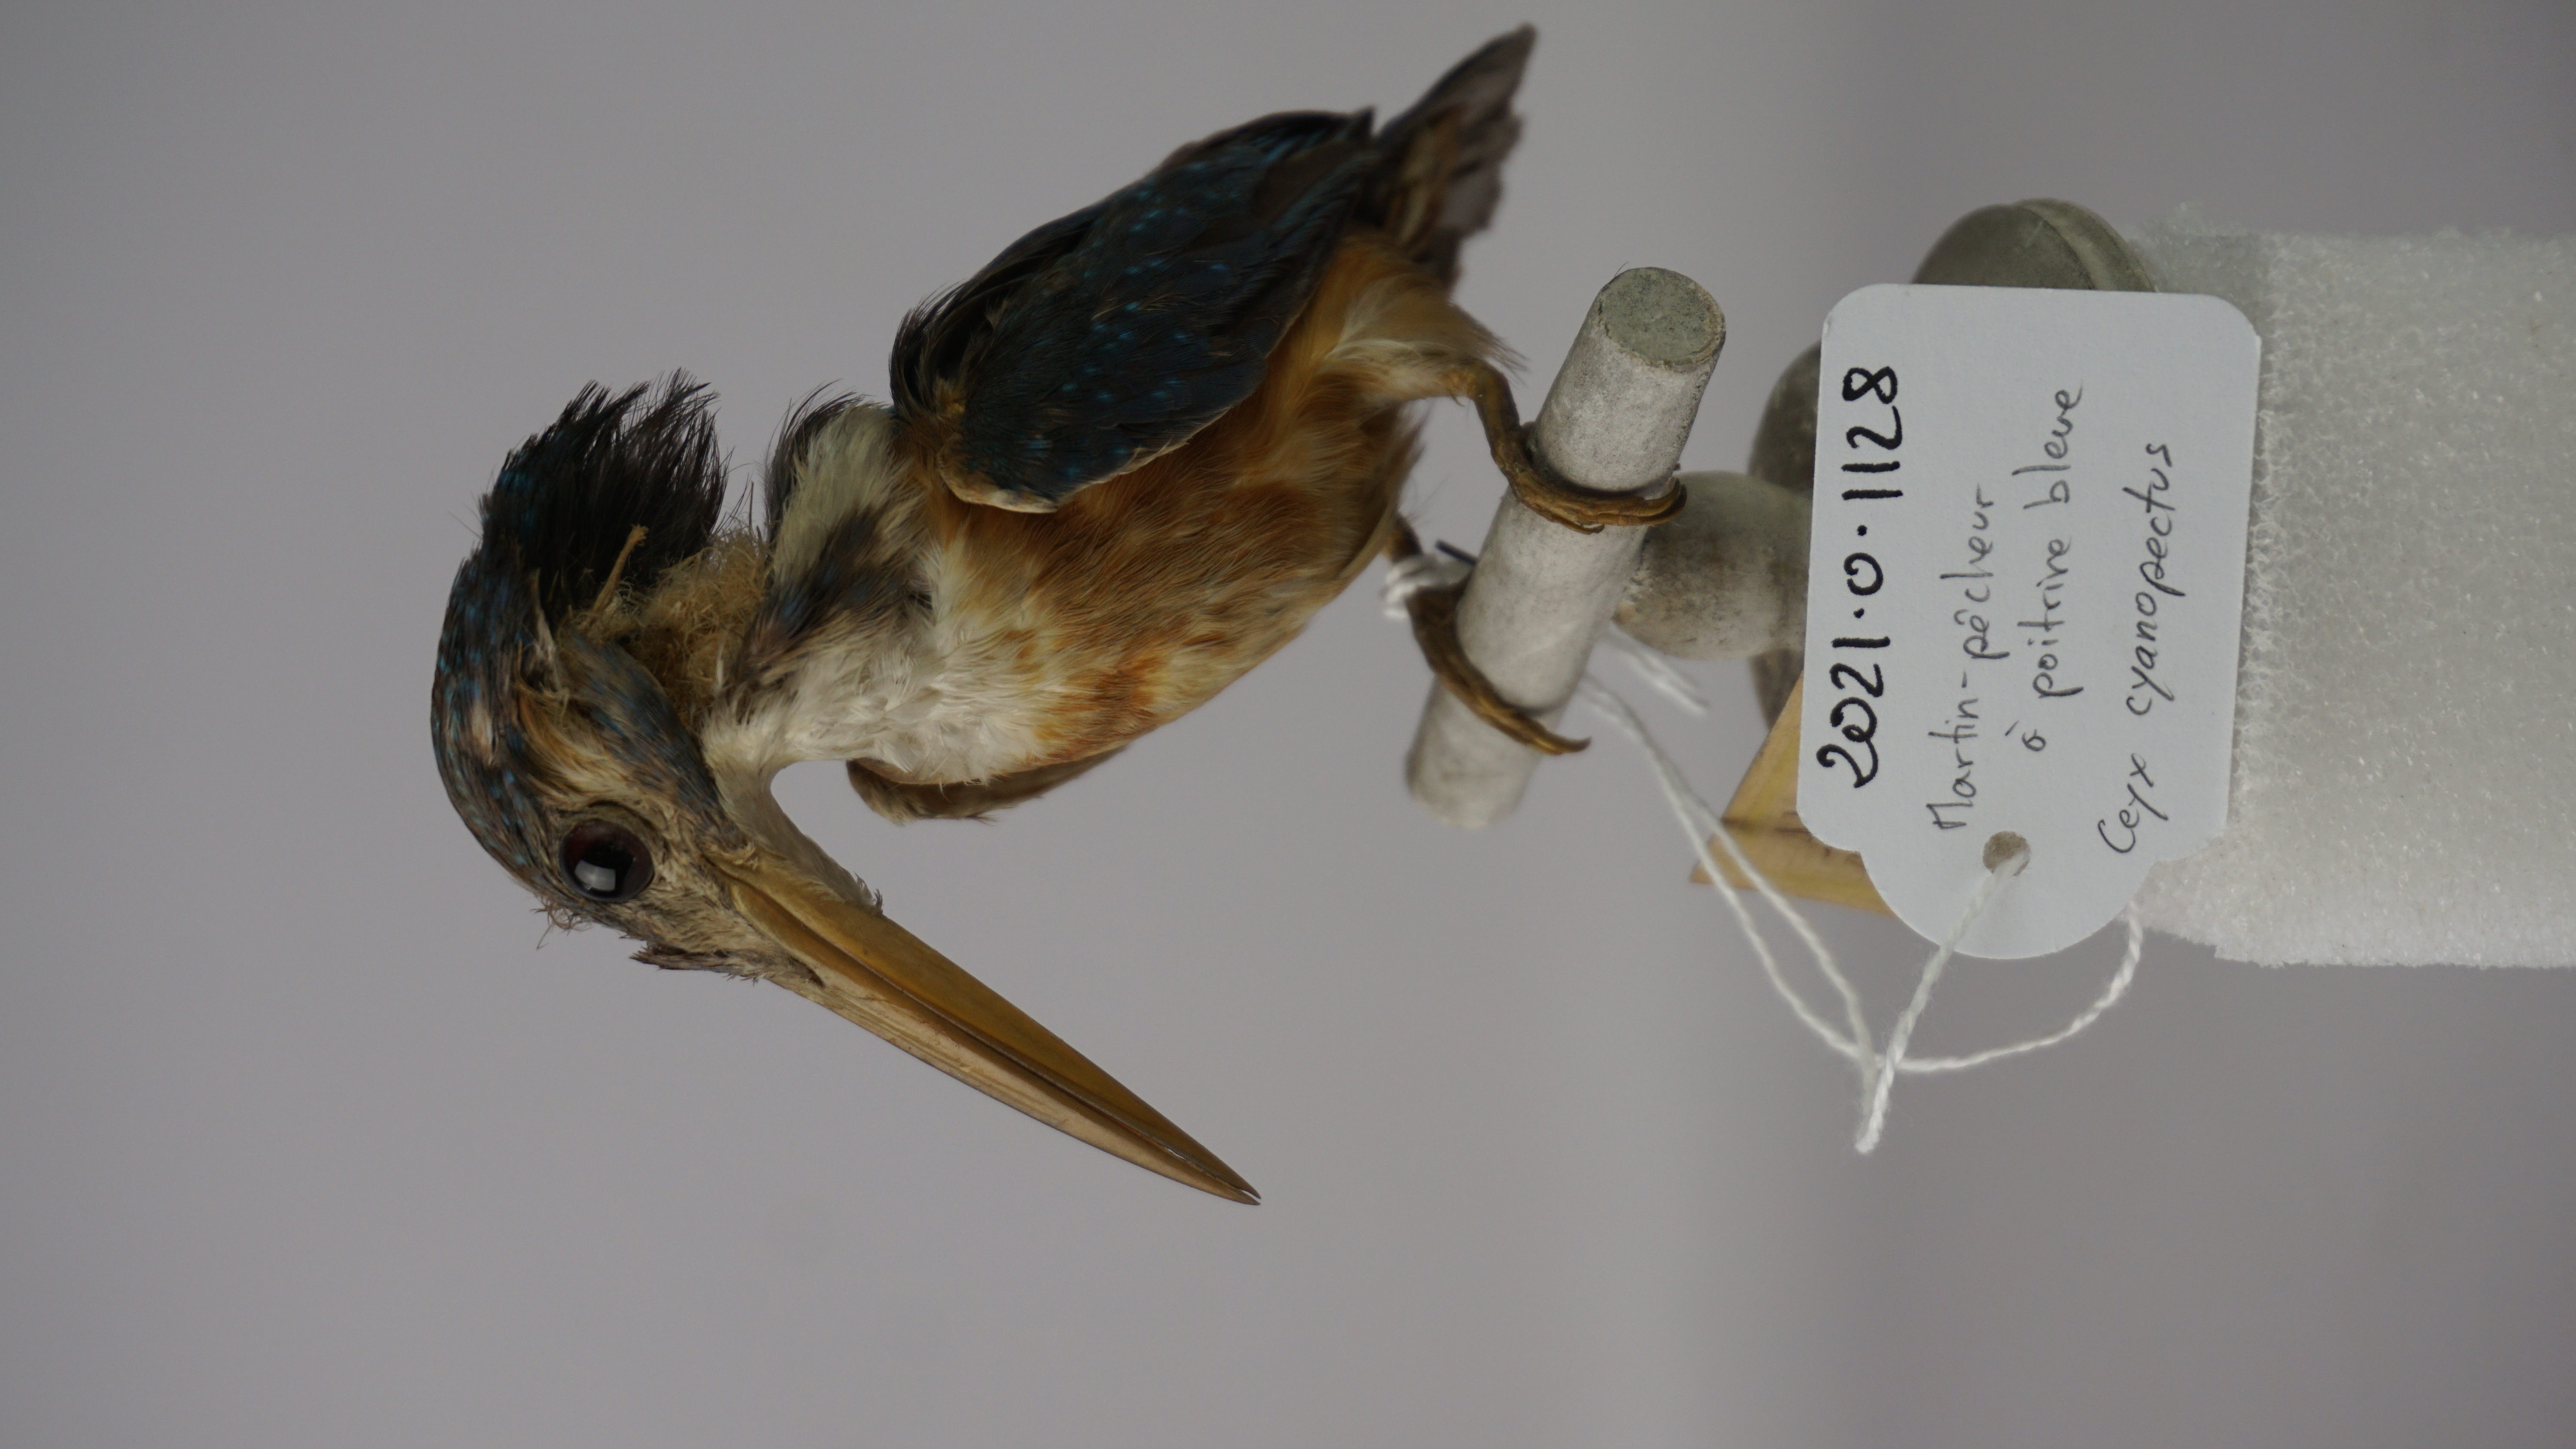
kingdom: Animalia
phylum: Chordata
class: Aves
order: Coraciiformes
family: Alcedinidae
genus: Ceyx
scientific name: Ceyx cyanopectus
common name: Indigo-banded kingfisher
